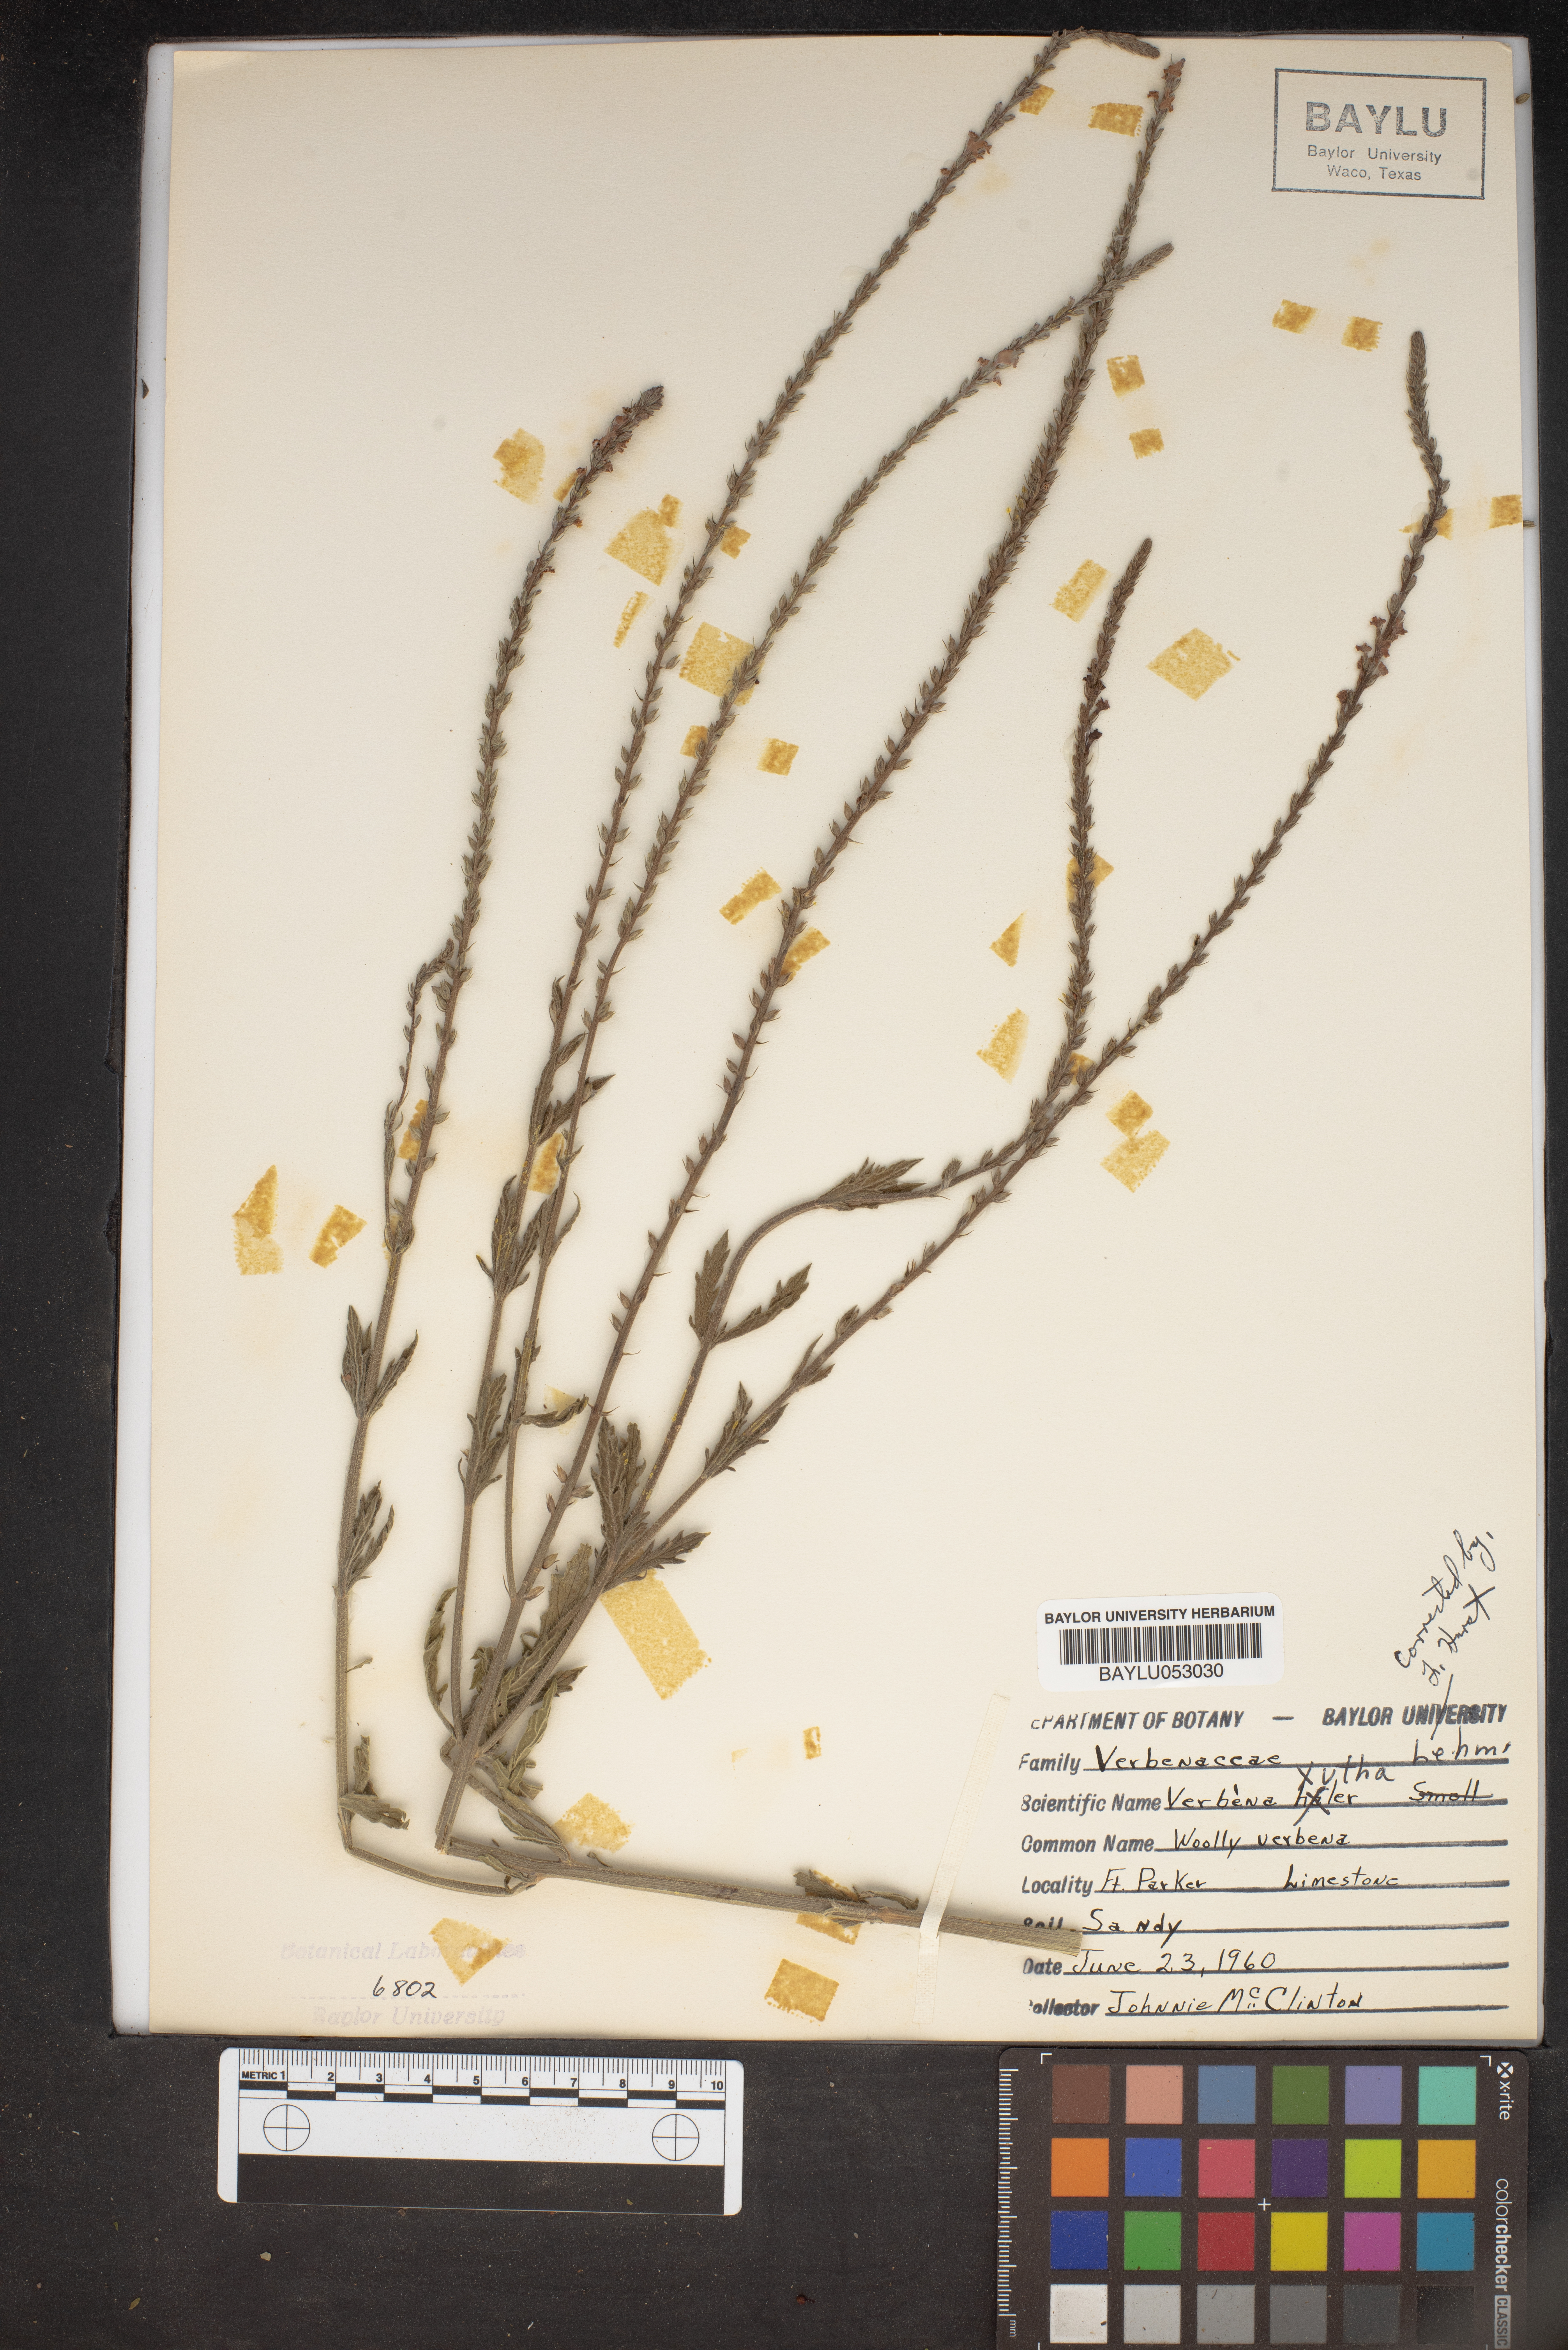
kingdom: Plantae
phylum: Tracheophyta
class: Magnoliopsida
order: Lamiales
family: Verbenaceae
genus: Verbena
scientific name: Verbena xutha
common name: Gulf vervain
